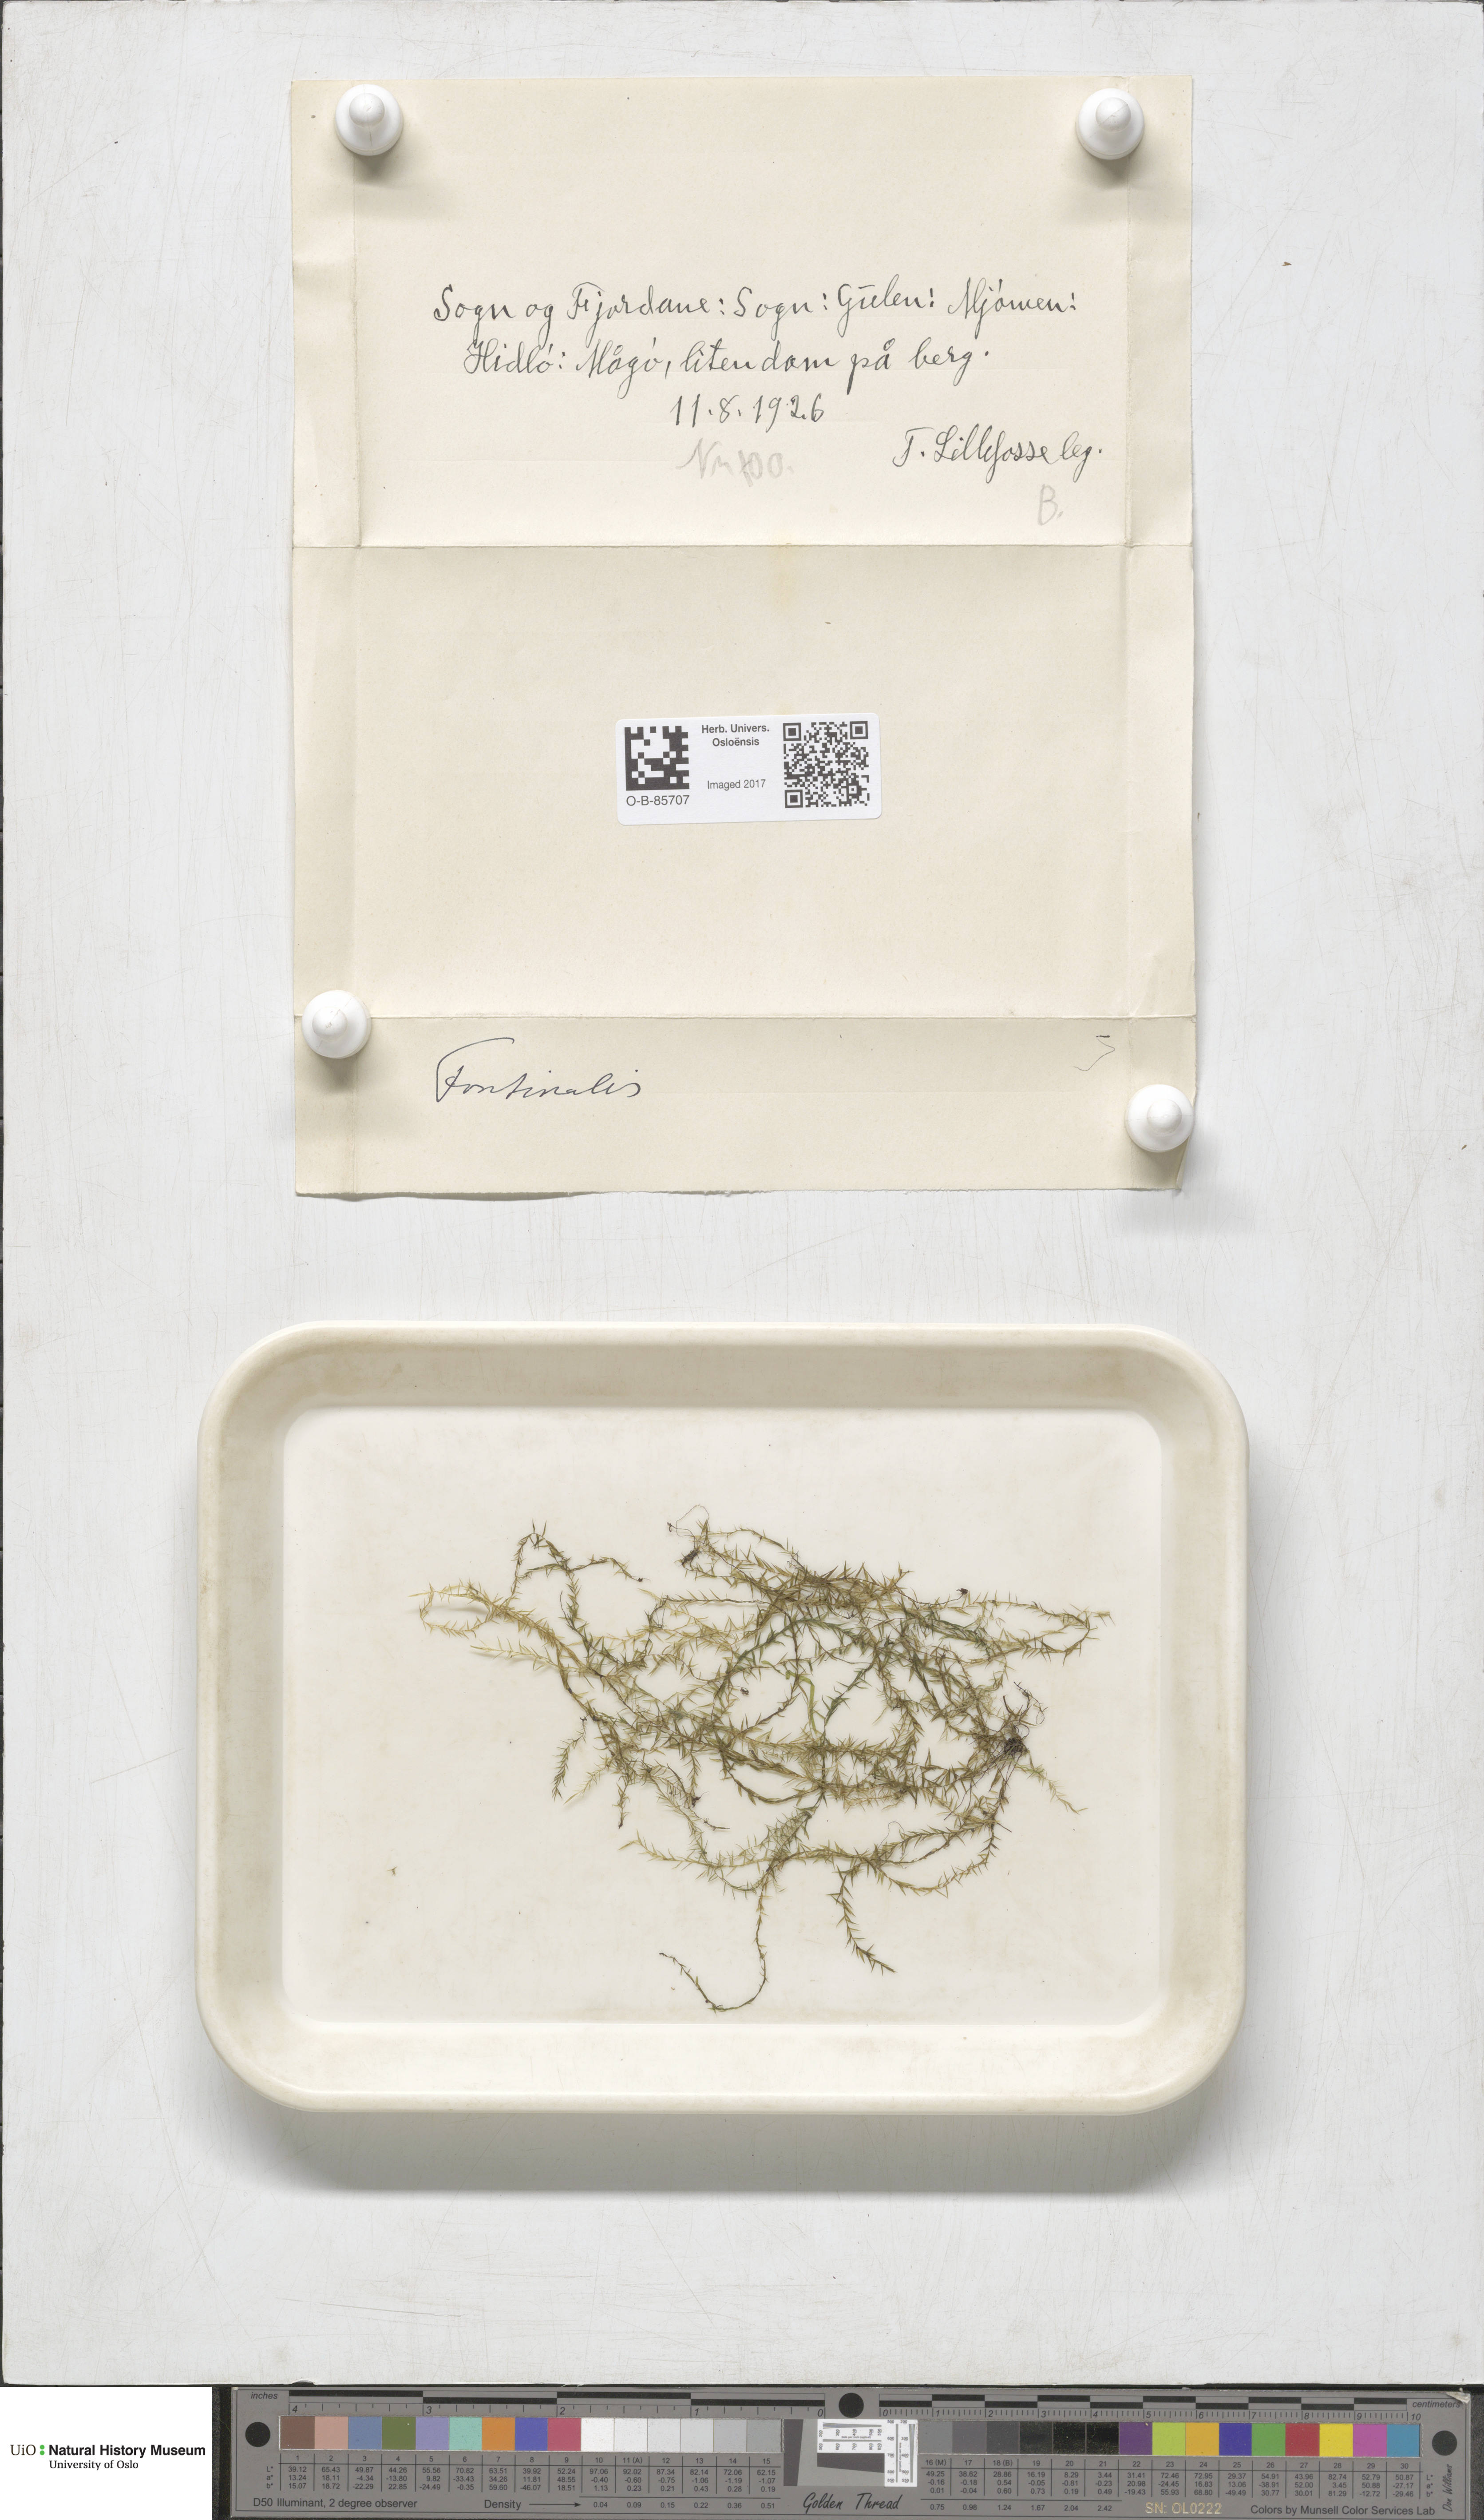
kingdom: Plantae
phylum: Bryophyta
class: Bryopsida
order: Hypnales
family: Fontinalaceae
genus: Fontinalis
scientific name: Fontinalis
